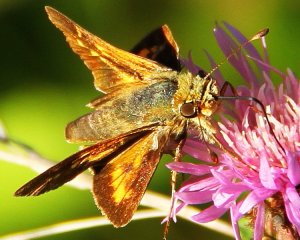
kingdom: Animalia
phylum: Arthropoda
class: Insecta
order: Lepidoptera
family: Hesperiidae
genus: Hesperia
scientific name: Hesperia leonardus
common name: Leonard's Skipper
